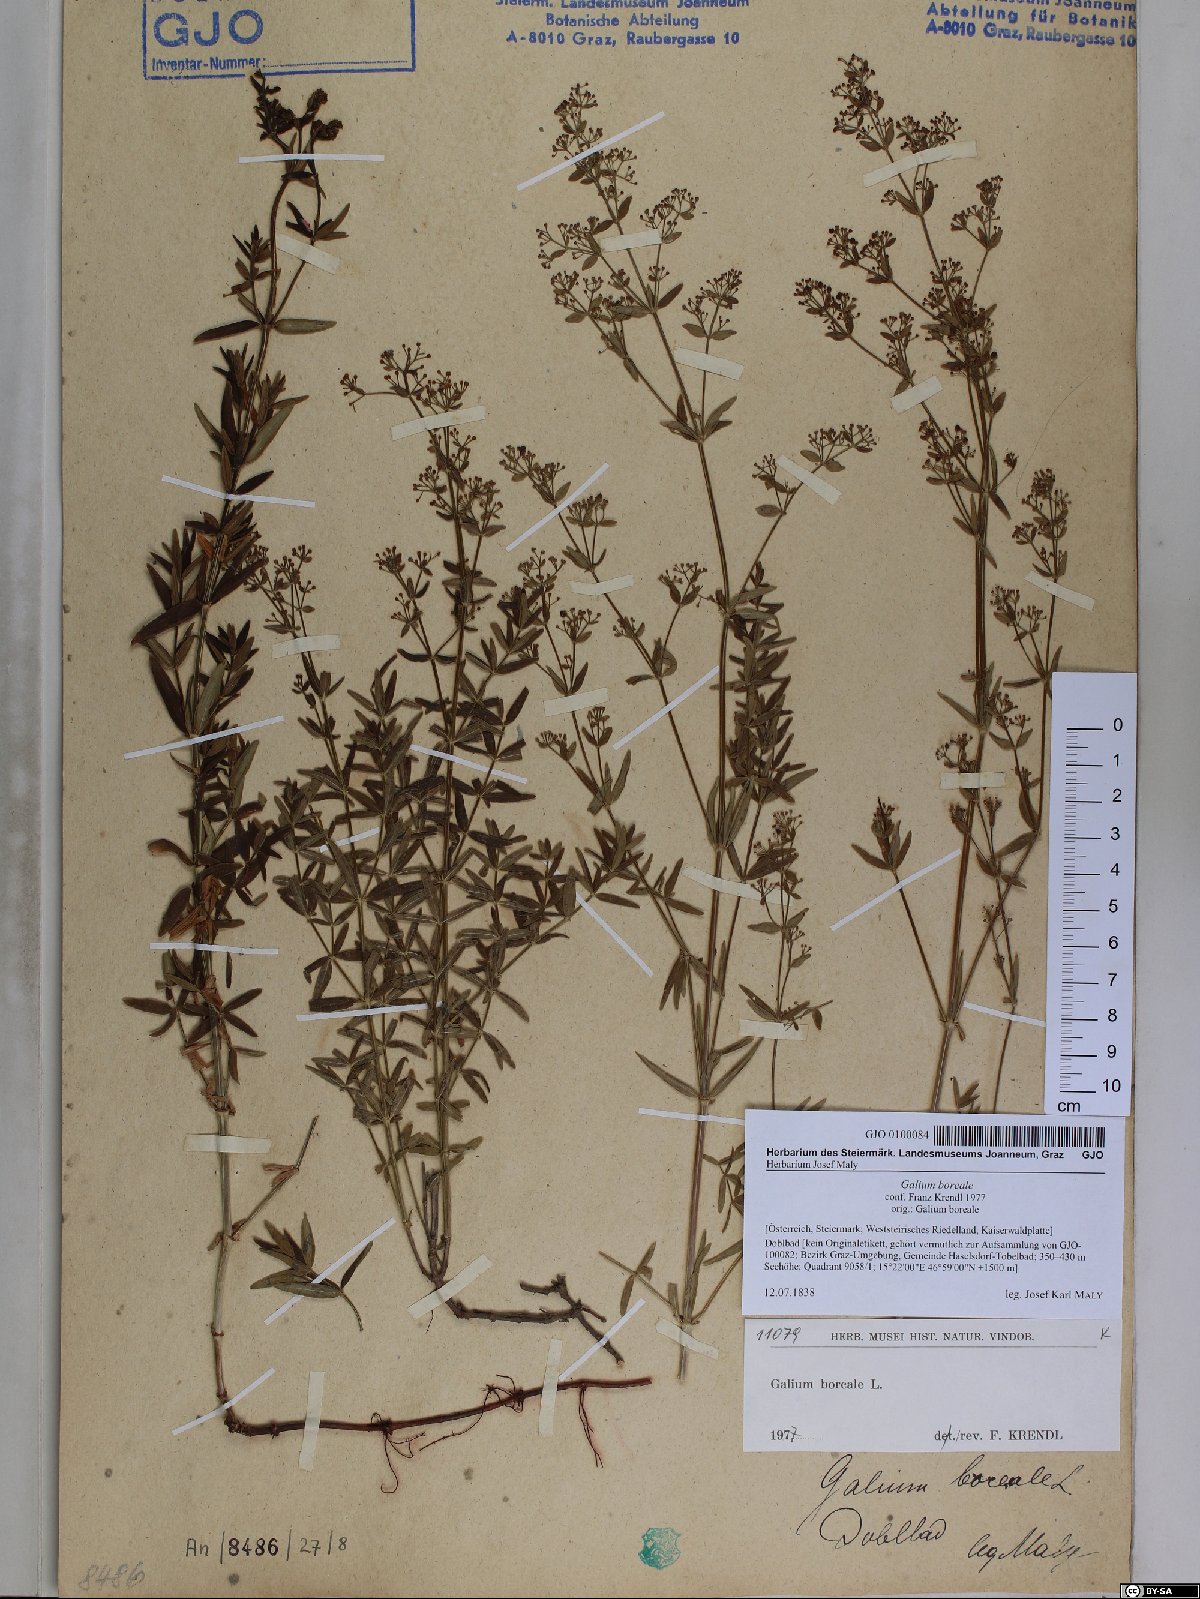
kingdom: Plantae
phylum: Tracheophyta
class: Magnoliopsida
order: Gentianales
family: Rubiaceae
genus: Galium
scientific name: Galium boreale
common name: Northern bedstraw
